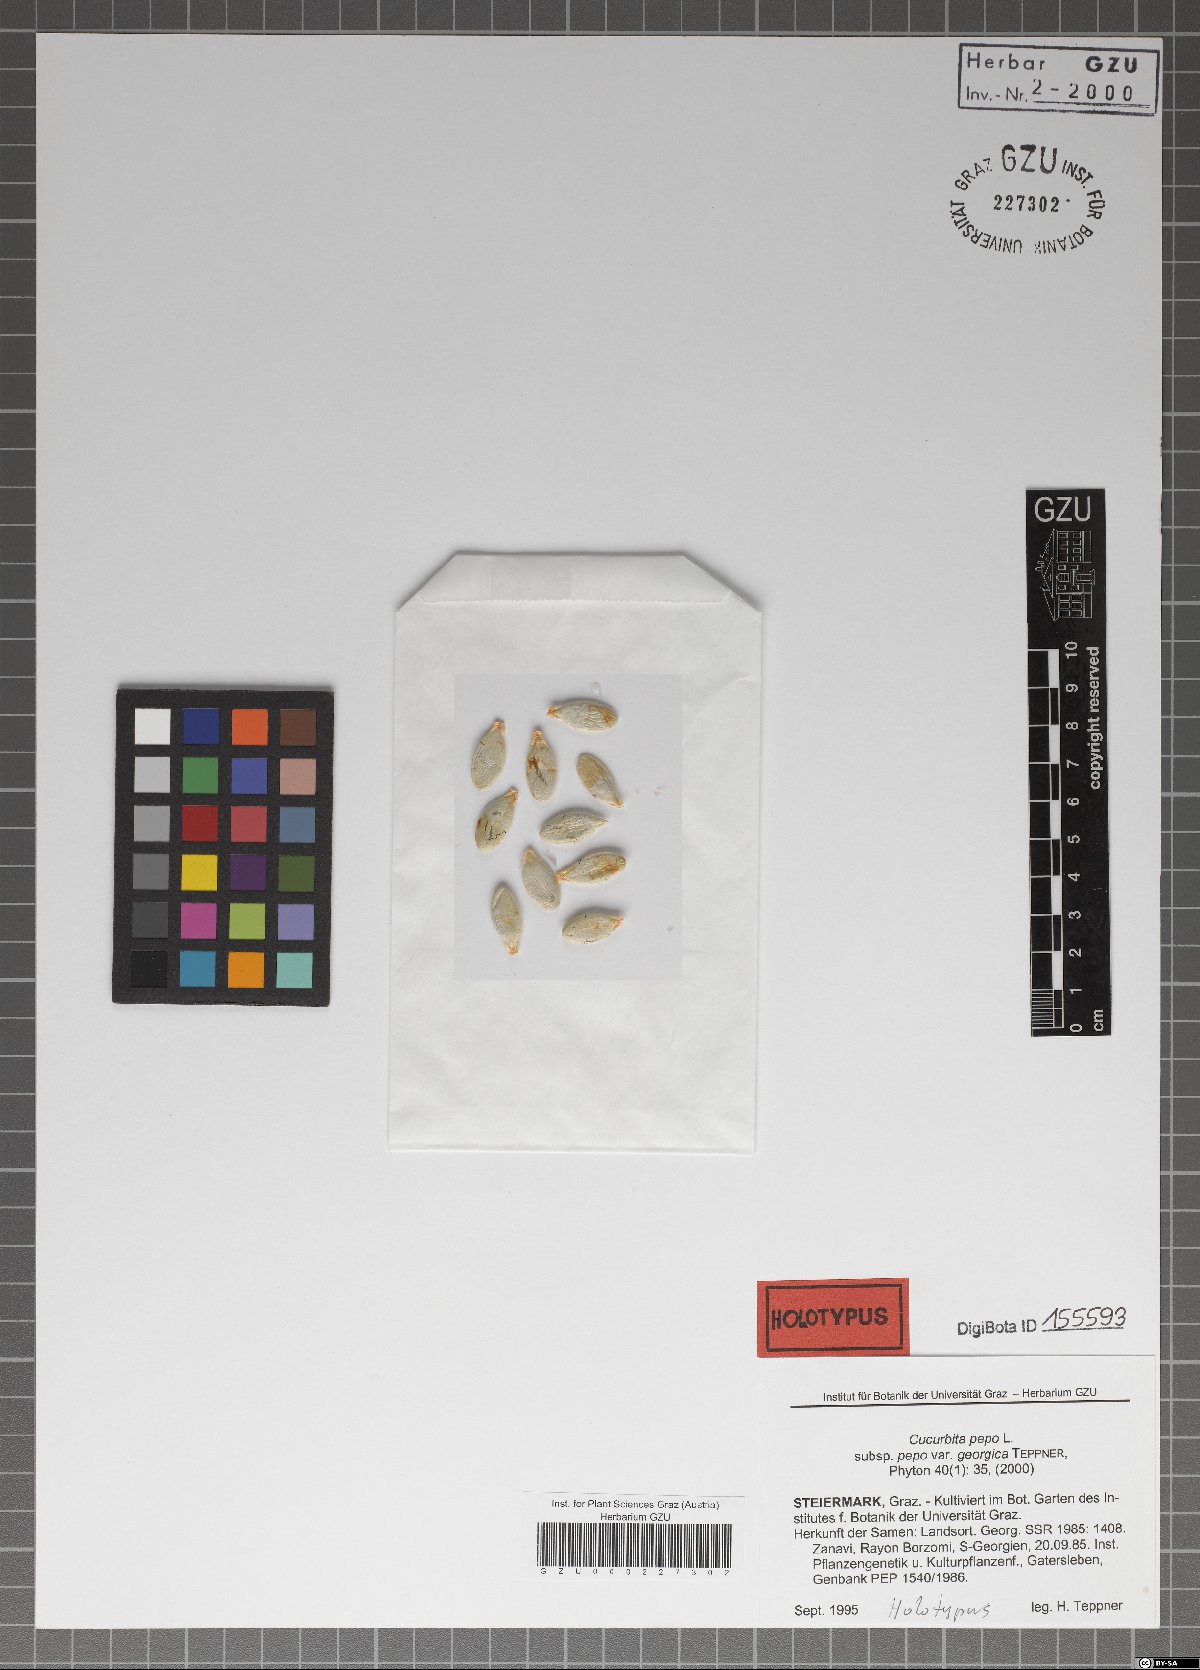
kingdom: Plantae
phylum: Tracheophyta
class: Magnoliopsida
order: Cucurbitales
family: Cucurbitaceae
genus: Cucurbita
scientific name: Cucurbita pepo
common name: Marrow
